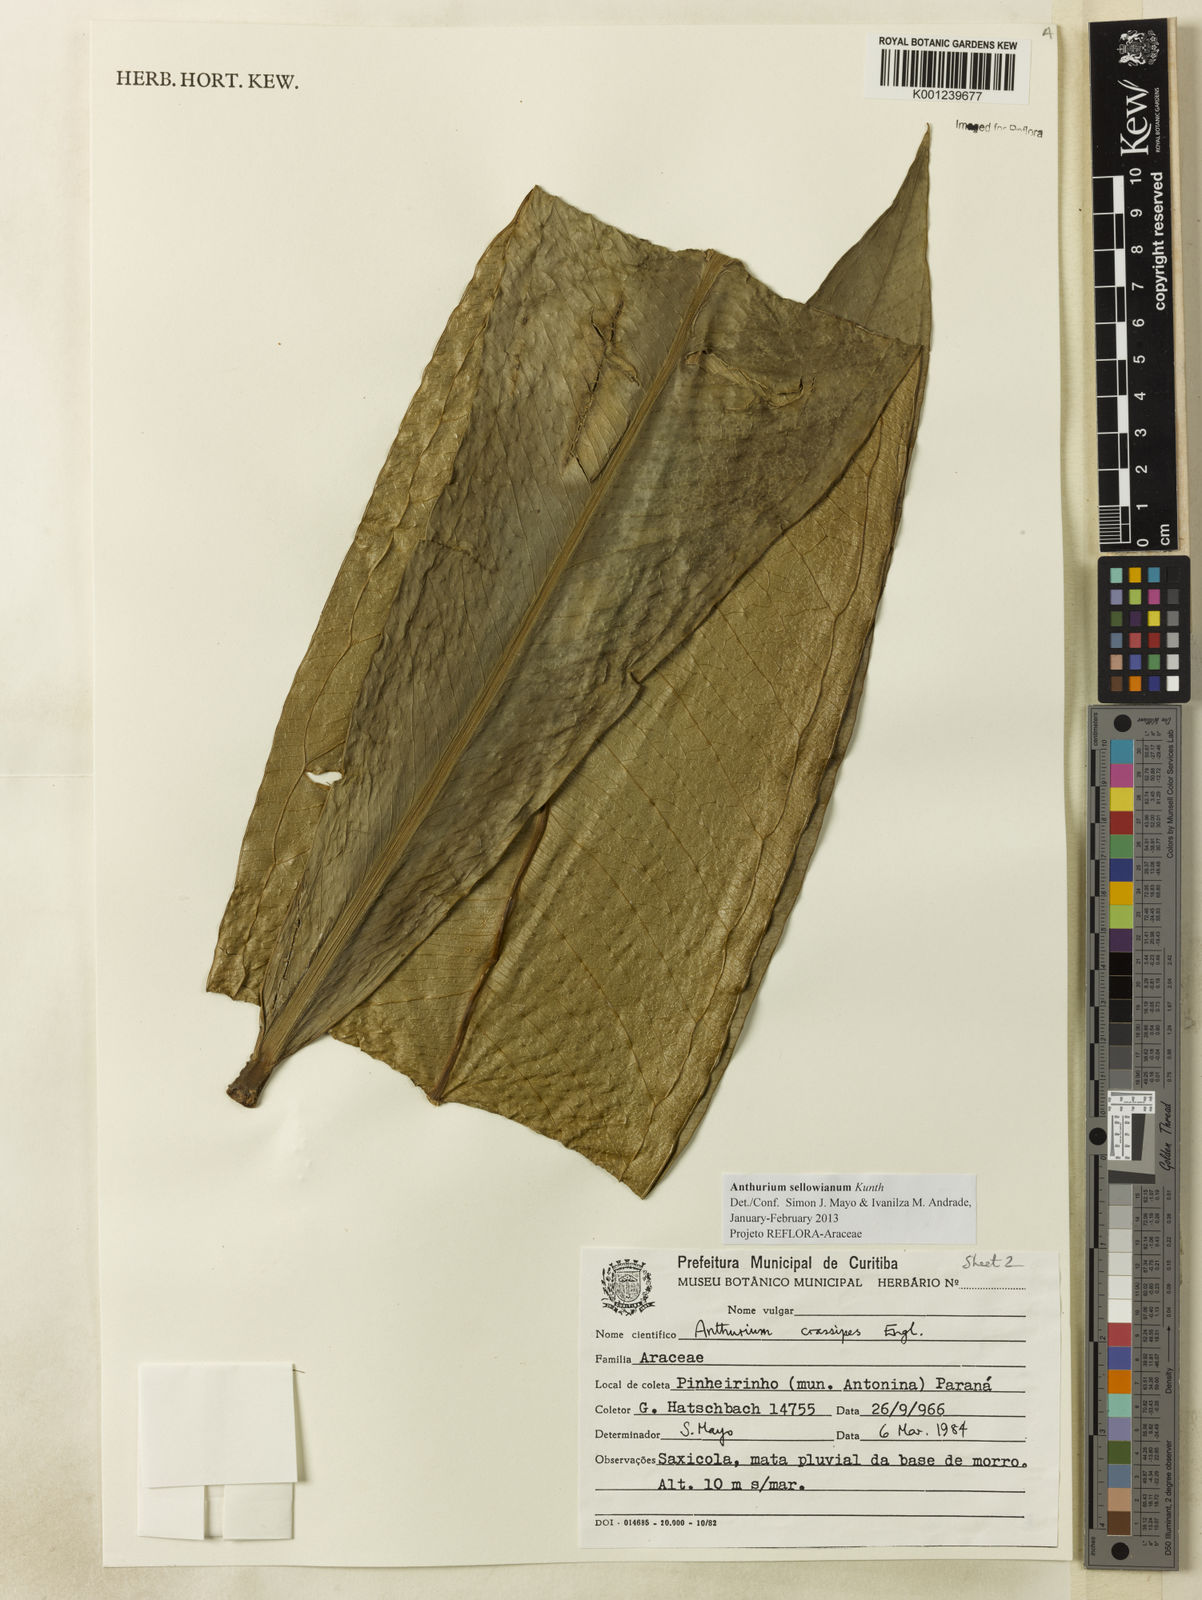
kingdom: Plantae
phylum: Tracheophyta
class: Liliopsida
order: Alismatales
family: Araceae
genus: Anthurium
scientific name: Anthurium sellowianum
